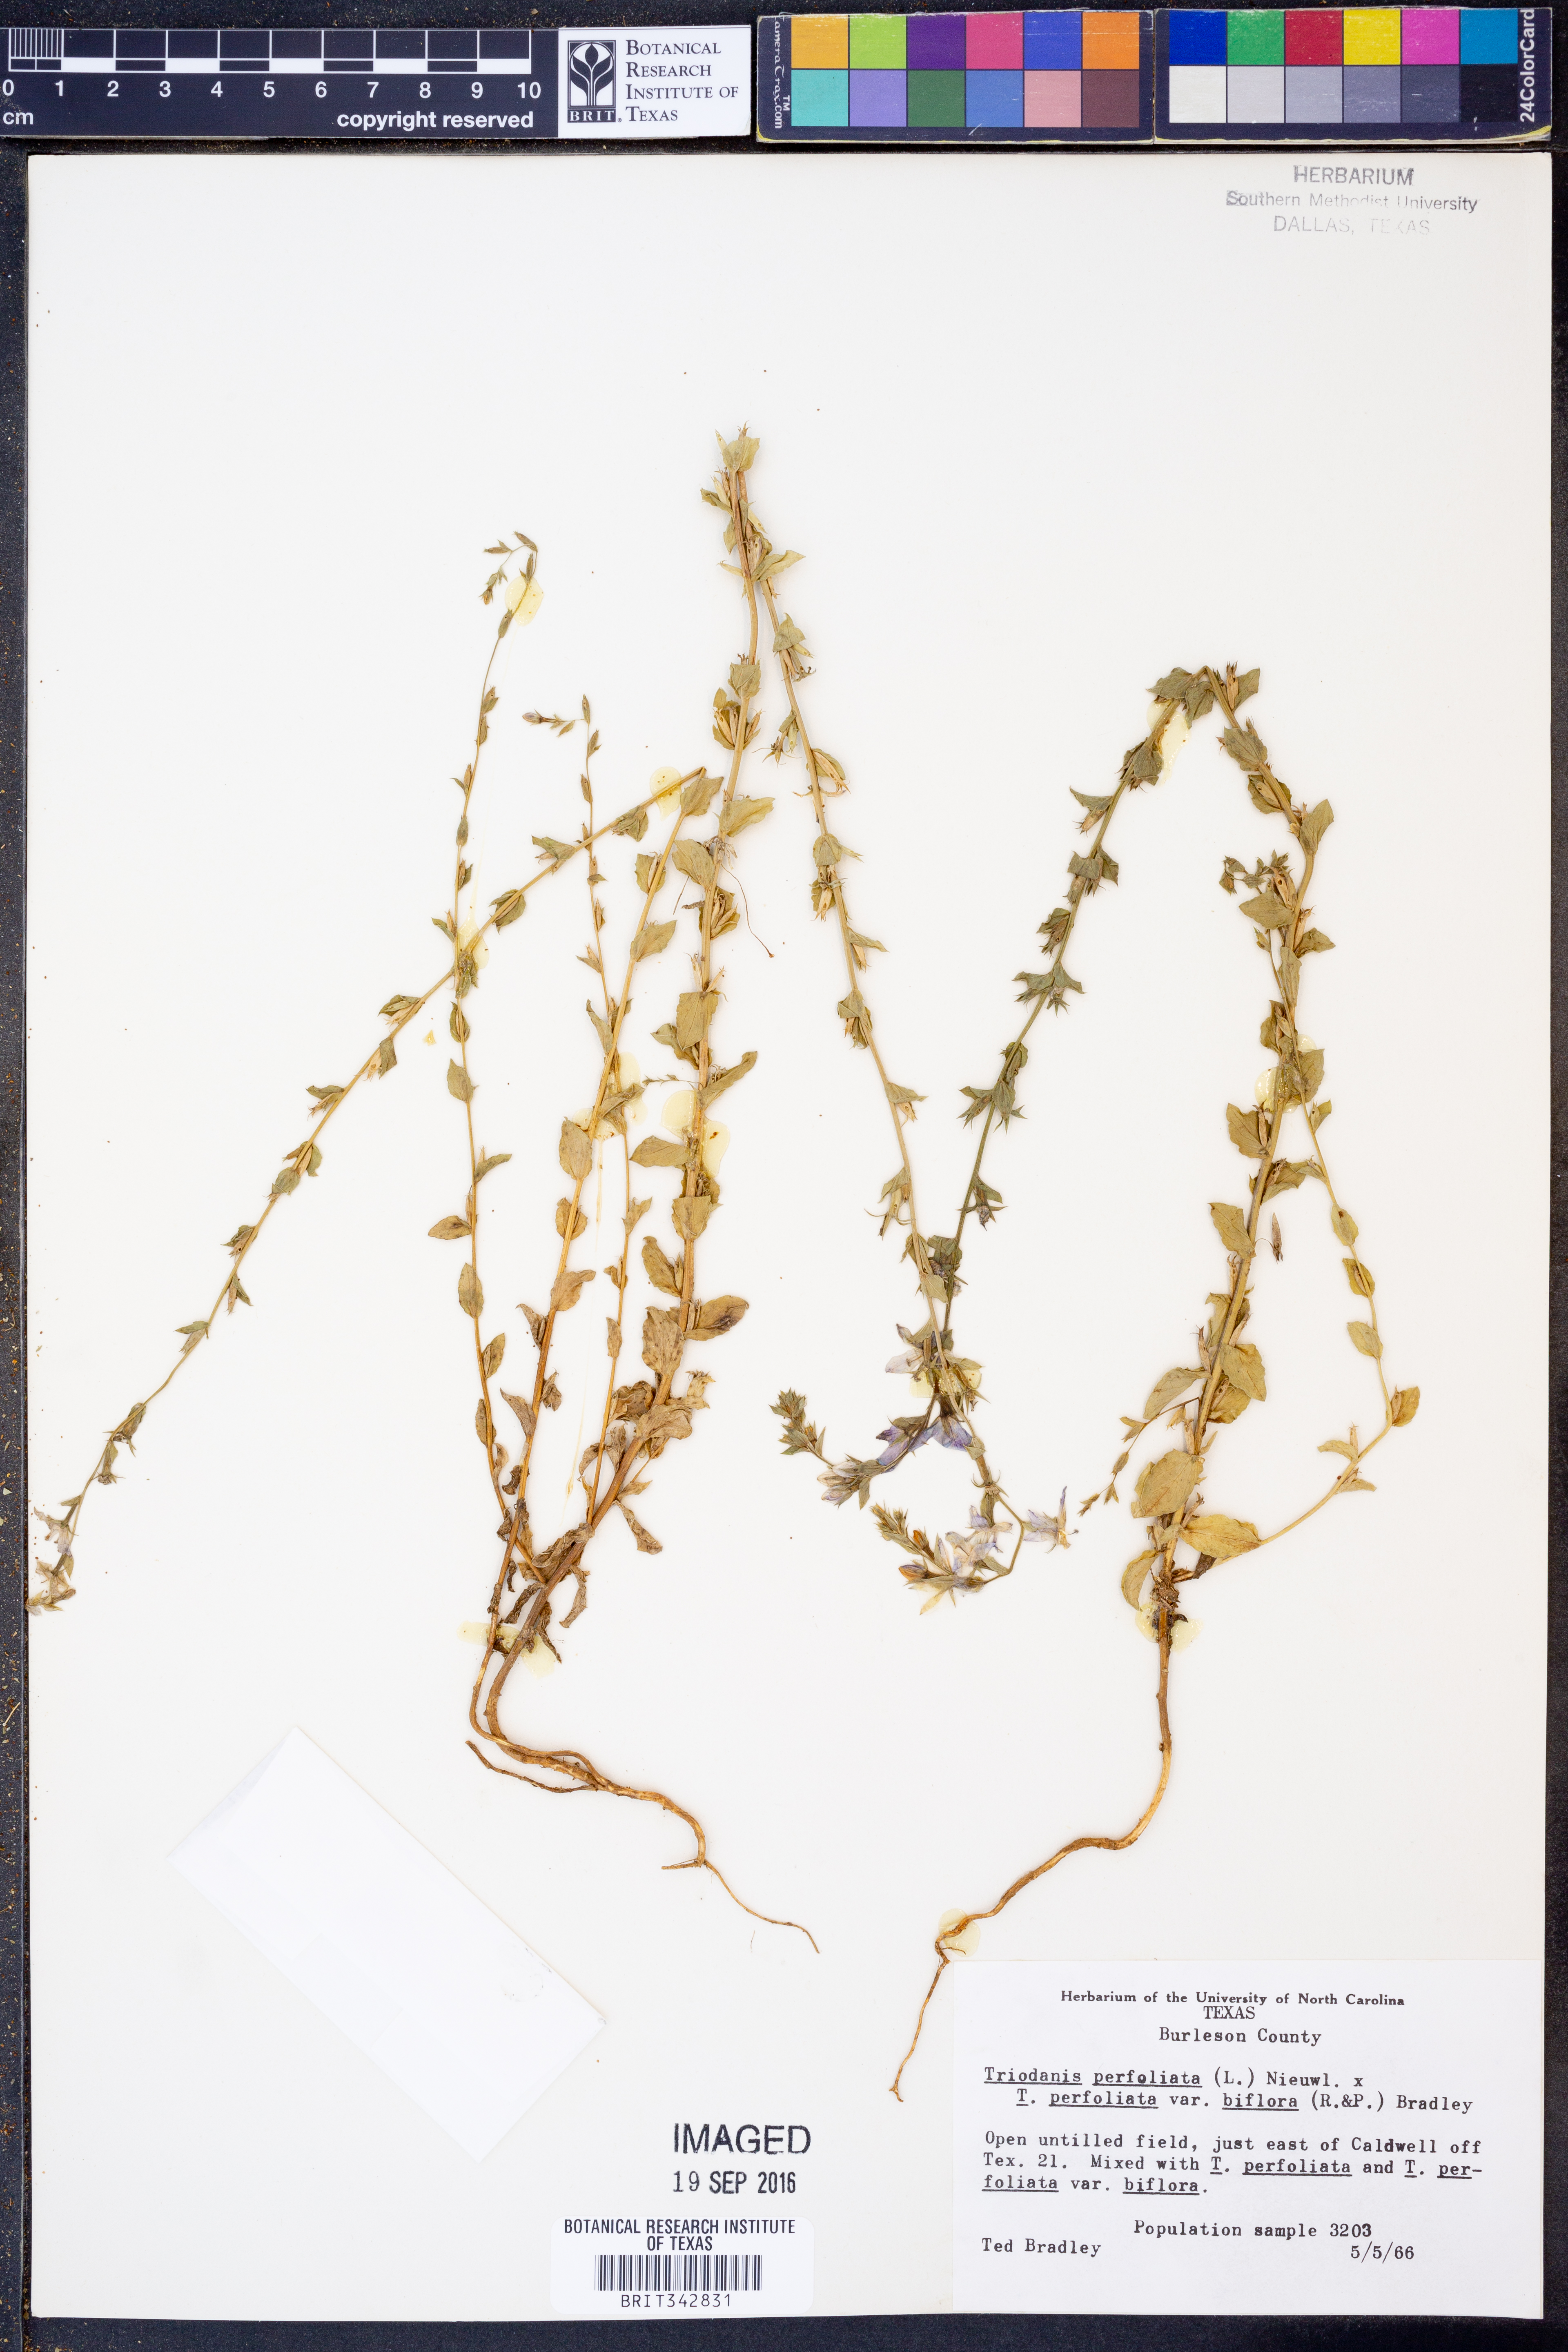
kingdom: Plantae
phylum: Tracheophyta
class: Magnoliopsida
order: Asterales
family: Campanulaceae
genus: Triodanis
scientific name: Triodanis perfoliata
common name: Clasping venus' looking-glass
